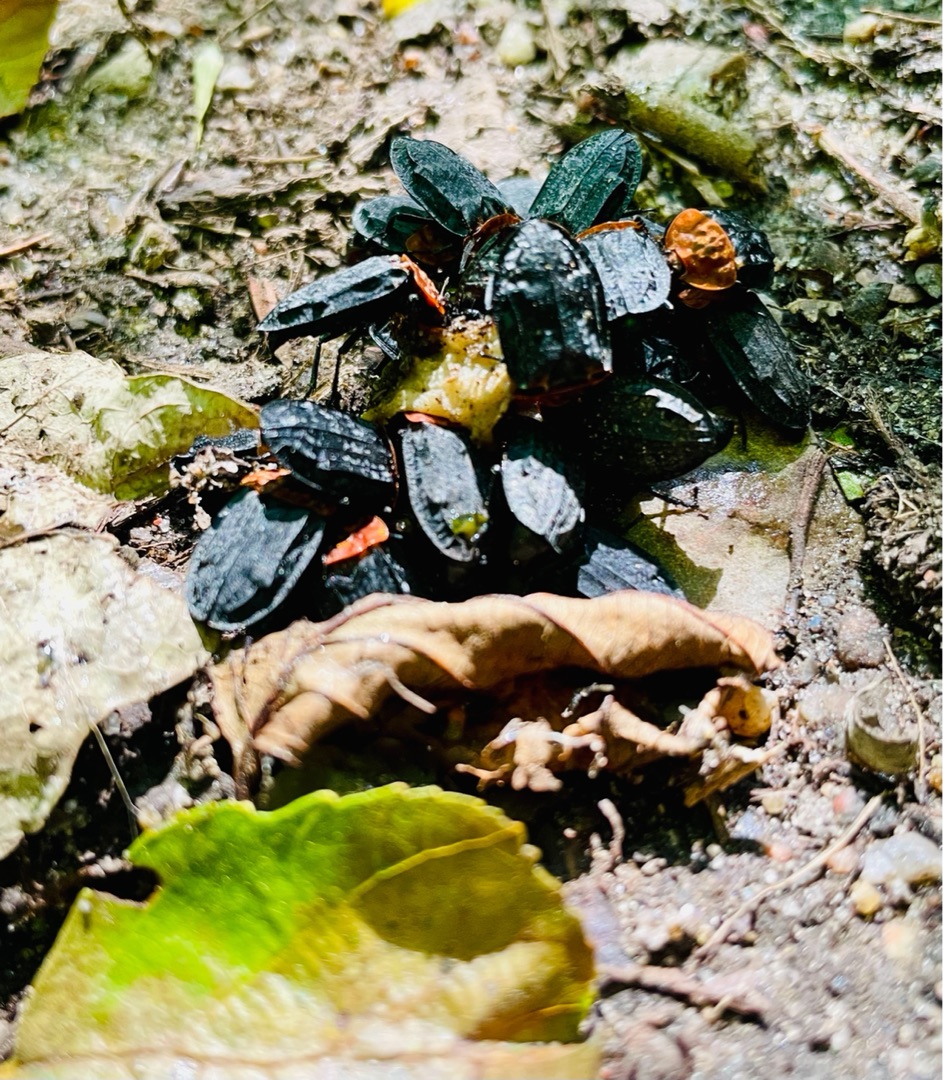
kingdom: Animalia
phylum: Arthropoda
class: Insecta
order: Coleoptera
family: Staphylinidae
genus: Oiceoptoma
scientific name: Oiceoptoma thoracicum
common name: Rødbrystet ådselbille
